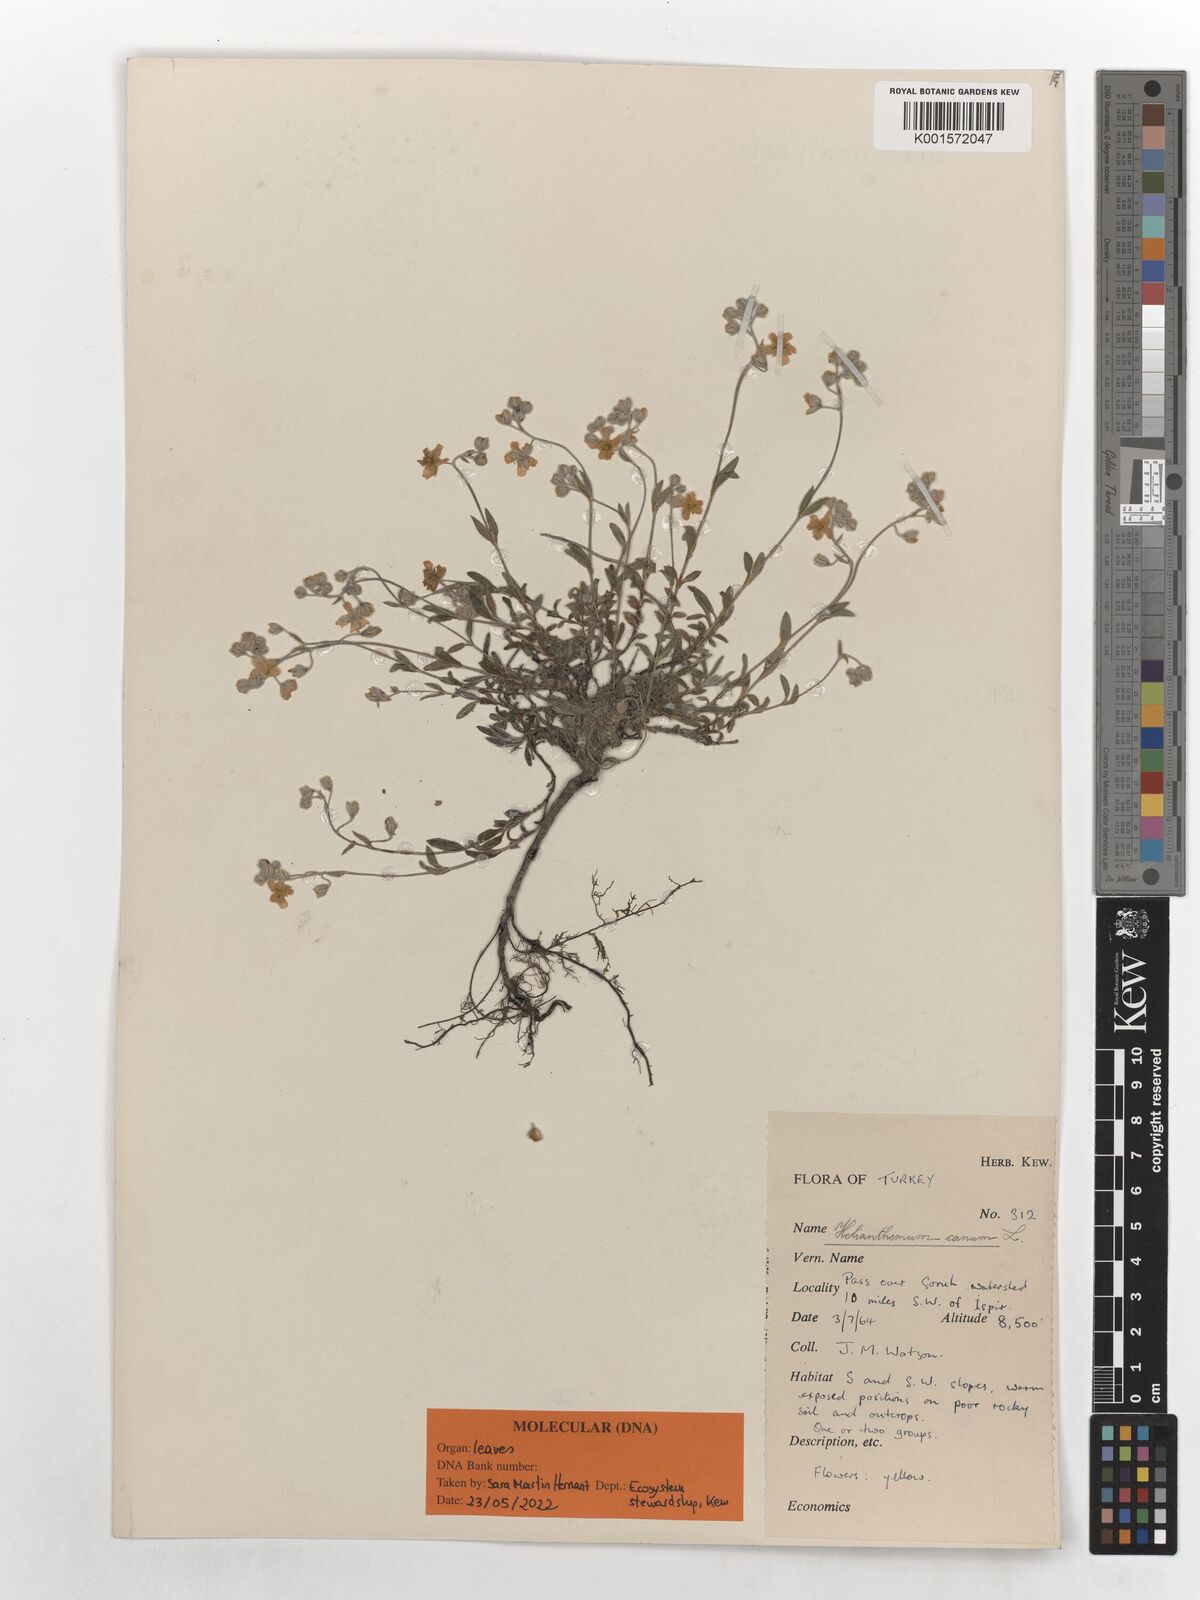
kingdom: Plantae
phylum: Tracheophyta
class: Magnoliopsida
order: Malvales
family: Cistaceae
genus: Helianthemum
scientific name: Helianthemum canum
